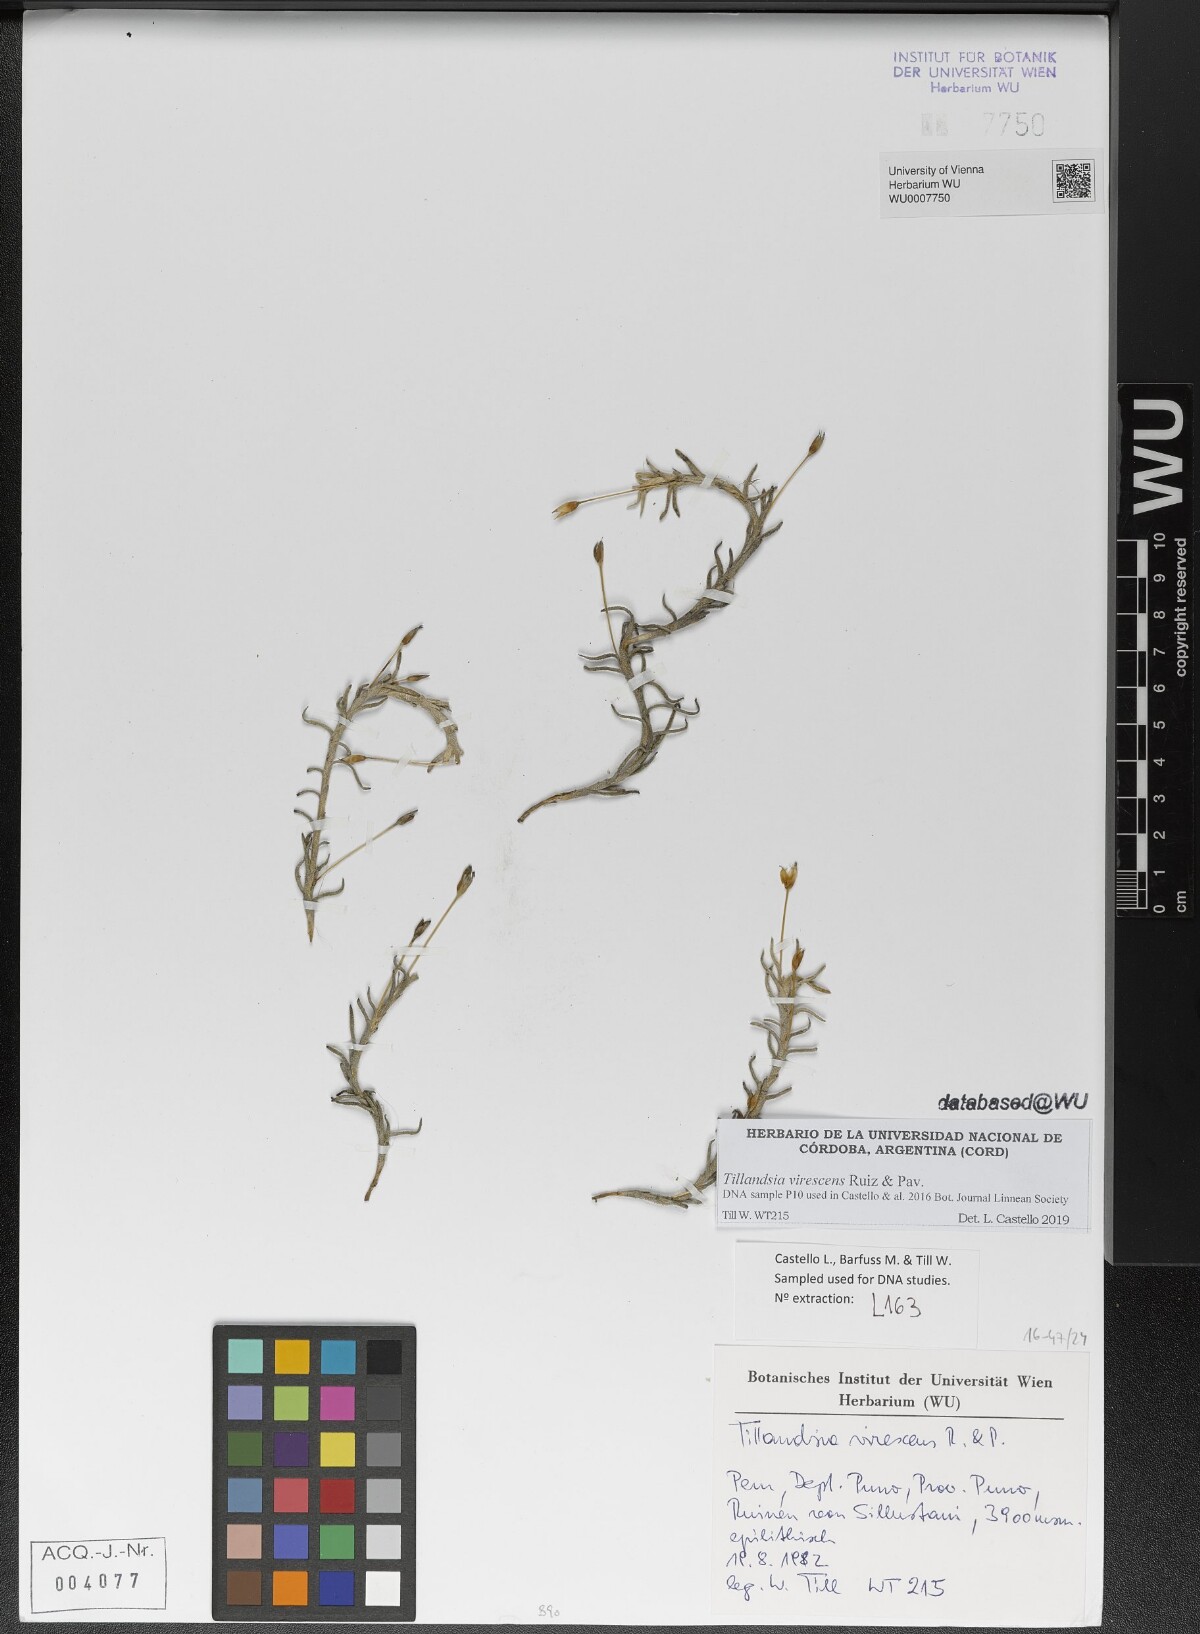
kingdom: Plantae
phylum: Tracheophyta
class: Liliopsida
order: Poales
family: Bromeliaceae
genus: Tillandsia
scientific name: Tillandsia virescens
